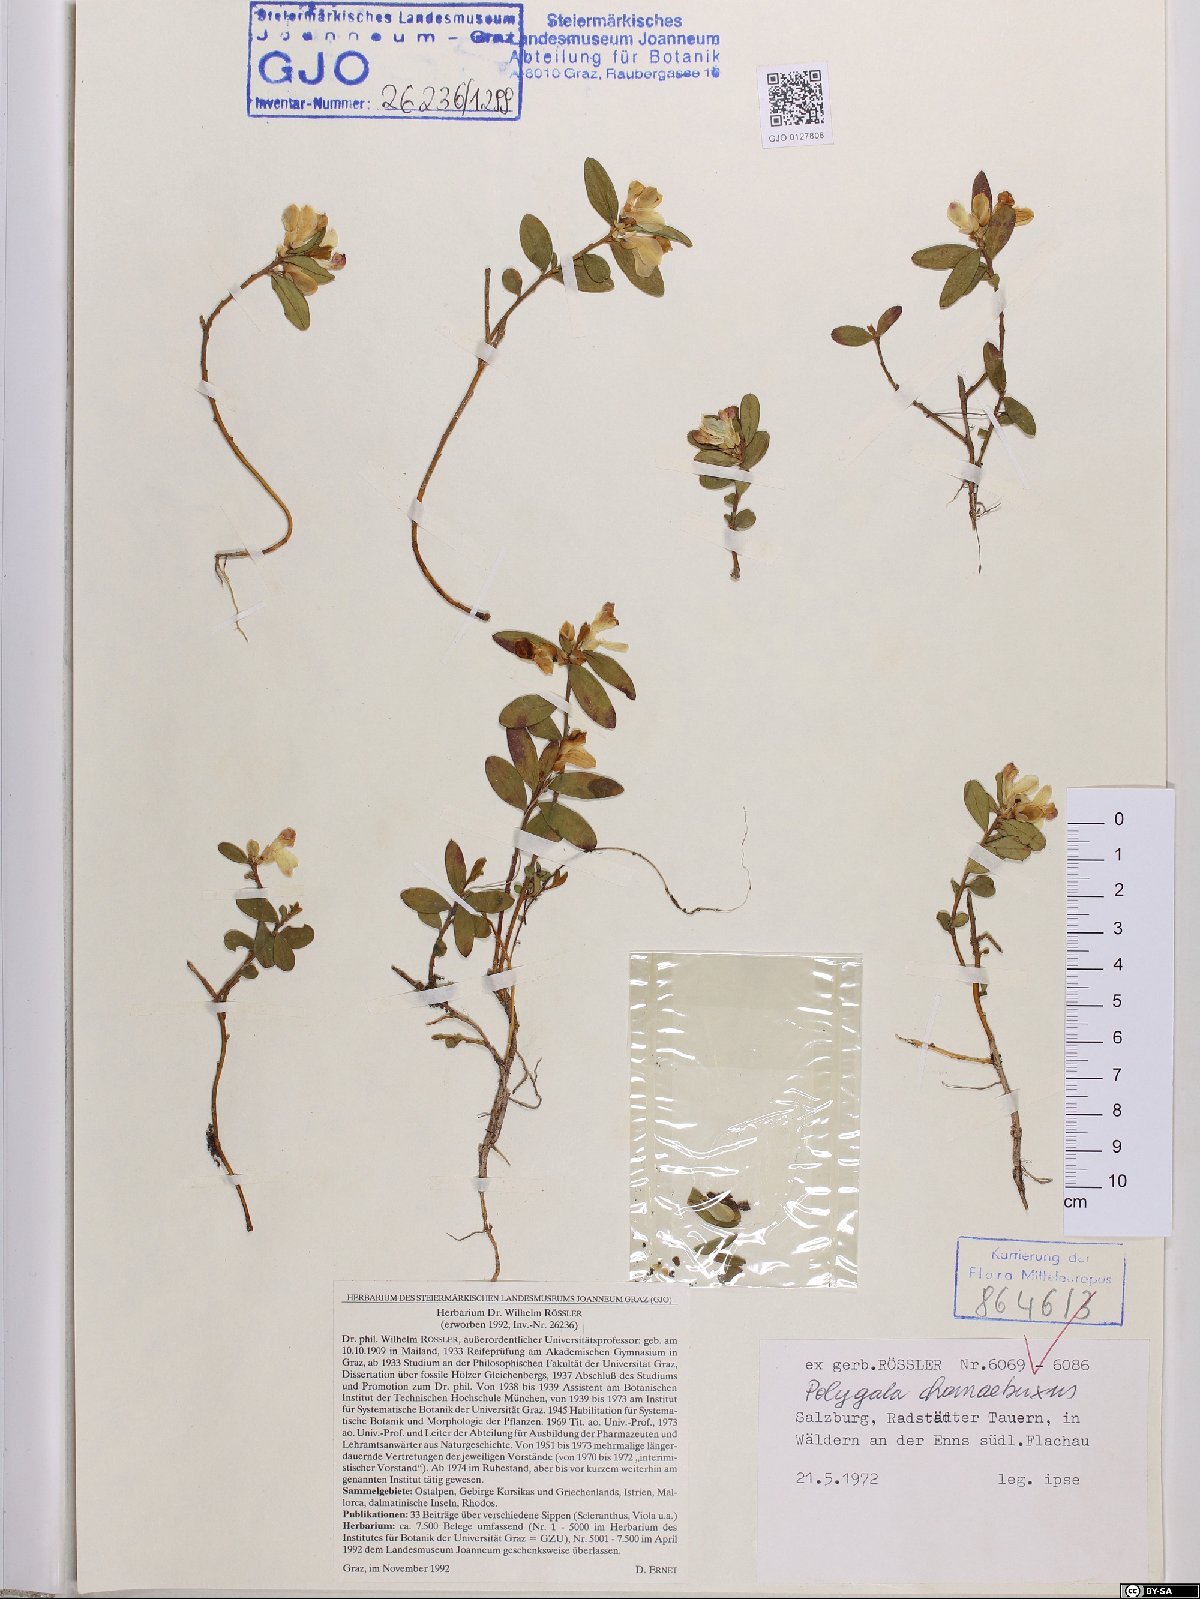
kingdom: Plantae
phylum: Tracheophyta
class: Magnoliopsida
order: Fabales
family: Polygalaceae
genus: Polygaloides
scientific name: Polygaloides chamaebuxus
